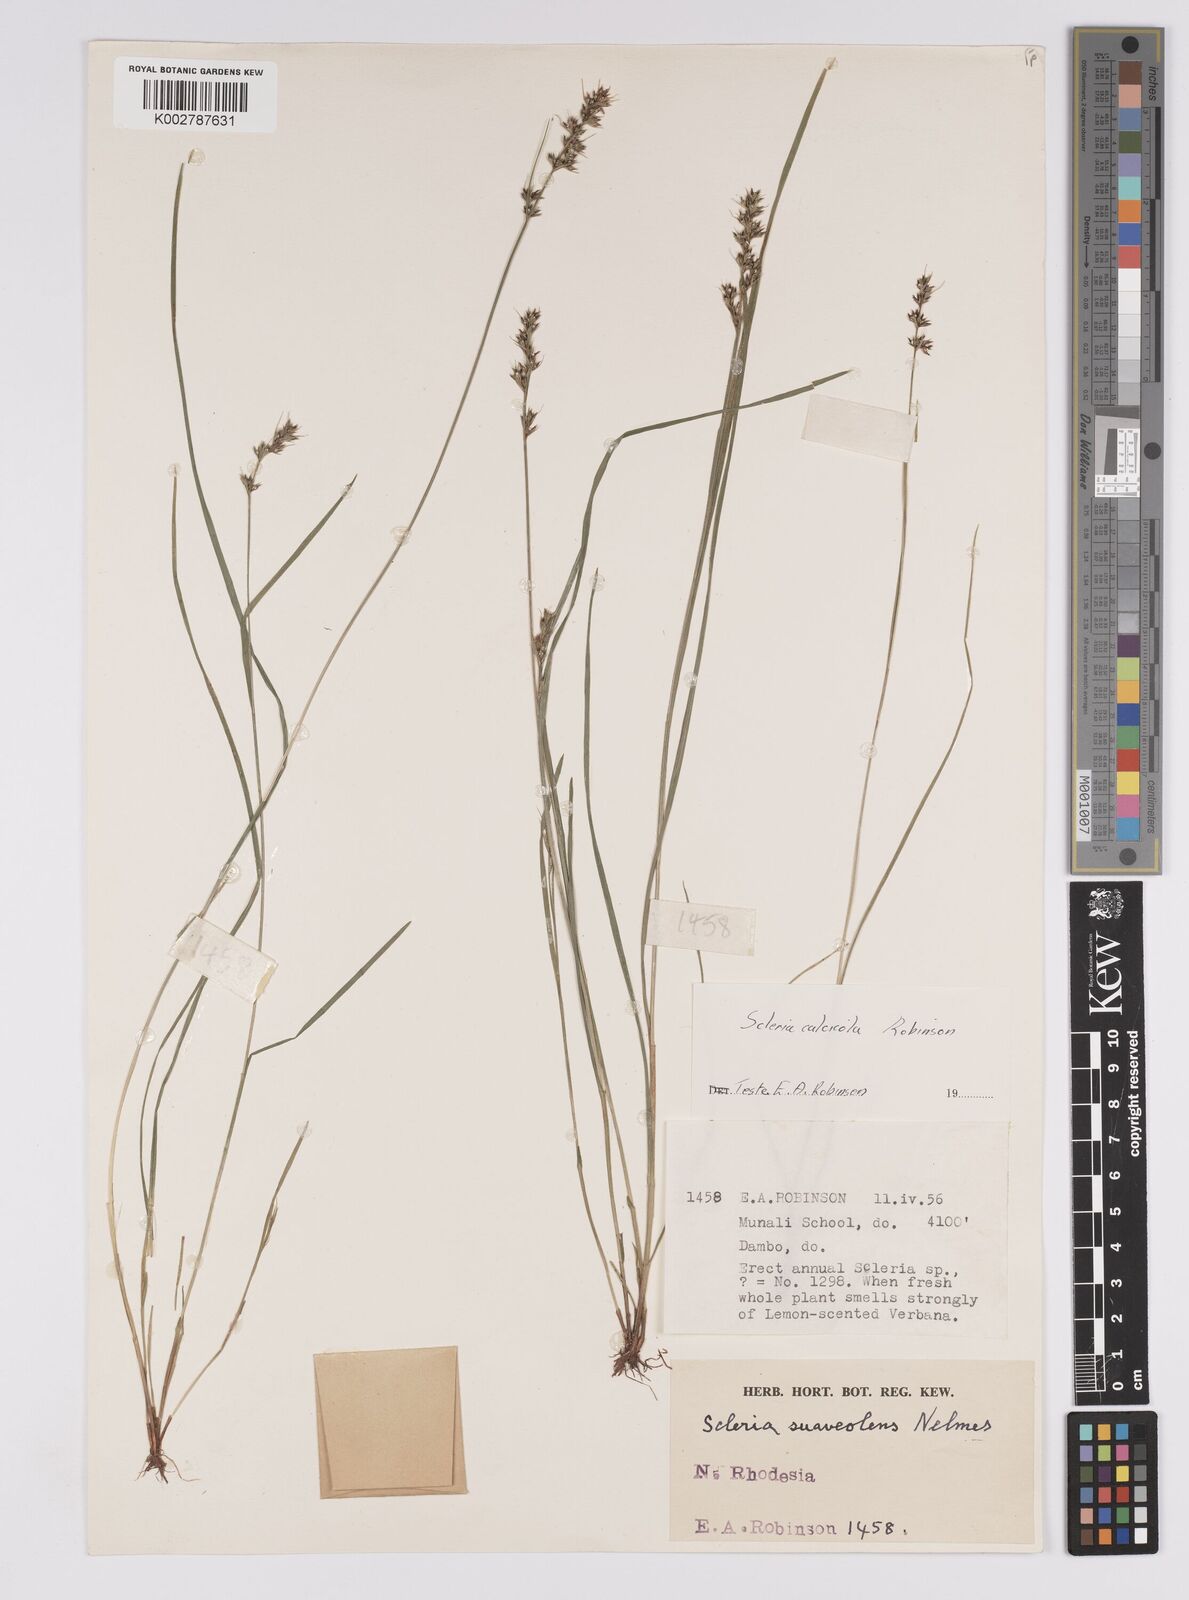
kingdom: Plantae
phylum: Tracheophyta
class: Liliopsida
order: Poales
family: Cyperaceae
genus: Scleria
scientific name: Scleria calcicola
